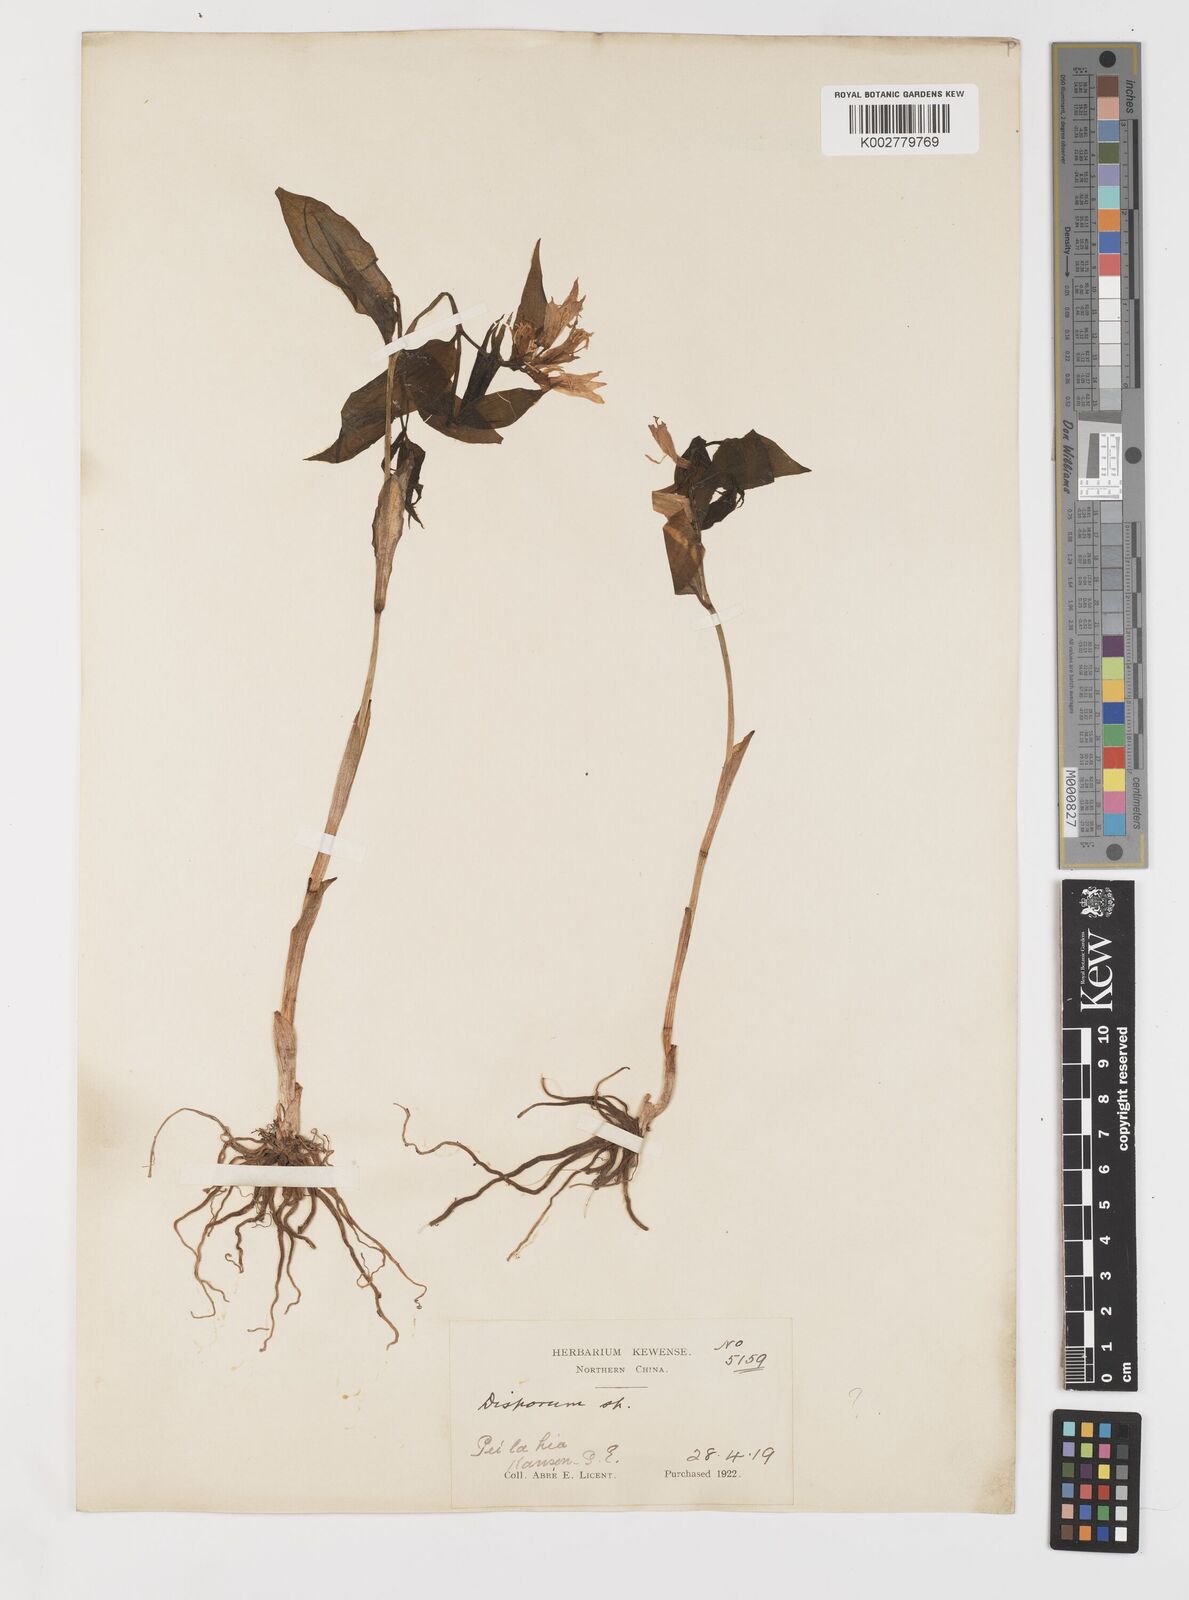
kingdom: Plantae
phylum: Tracheophyta
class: Liliopsida
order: Liliales
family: Colchicaceae
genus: Disporum
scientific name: Disporum sessile
